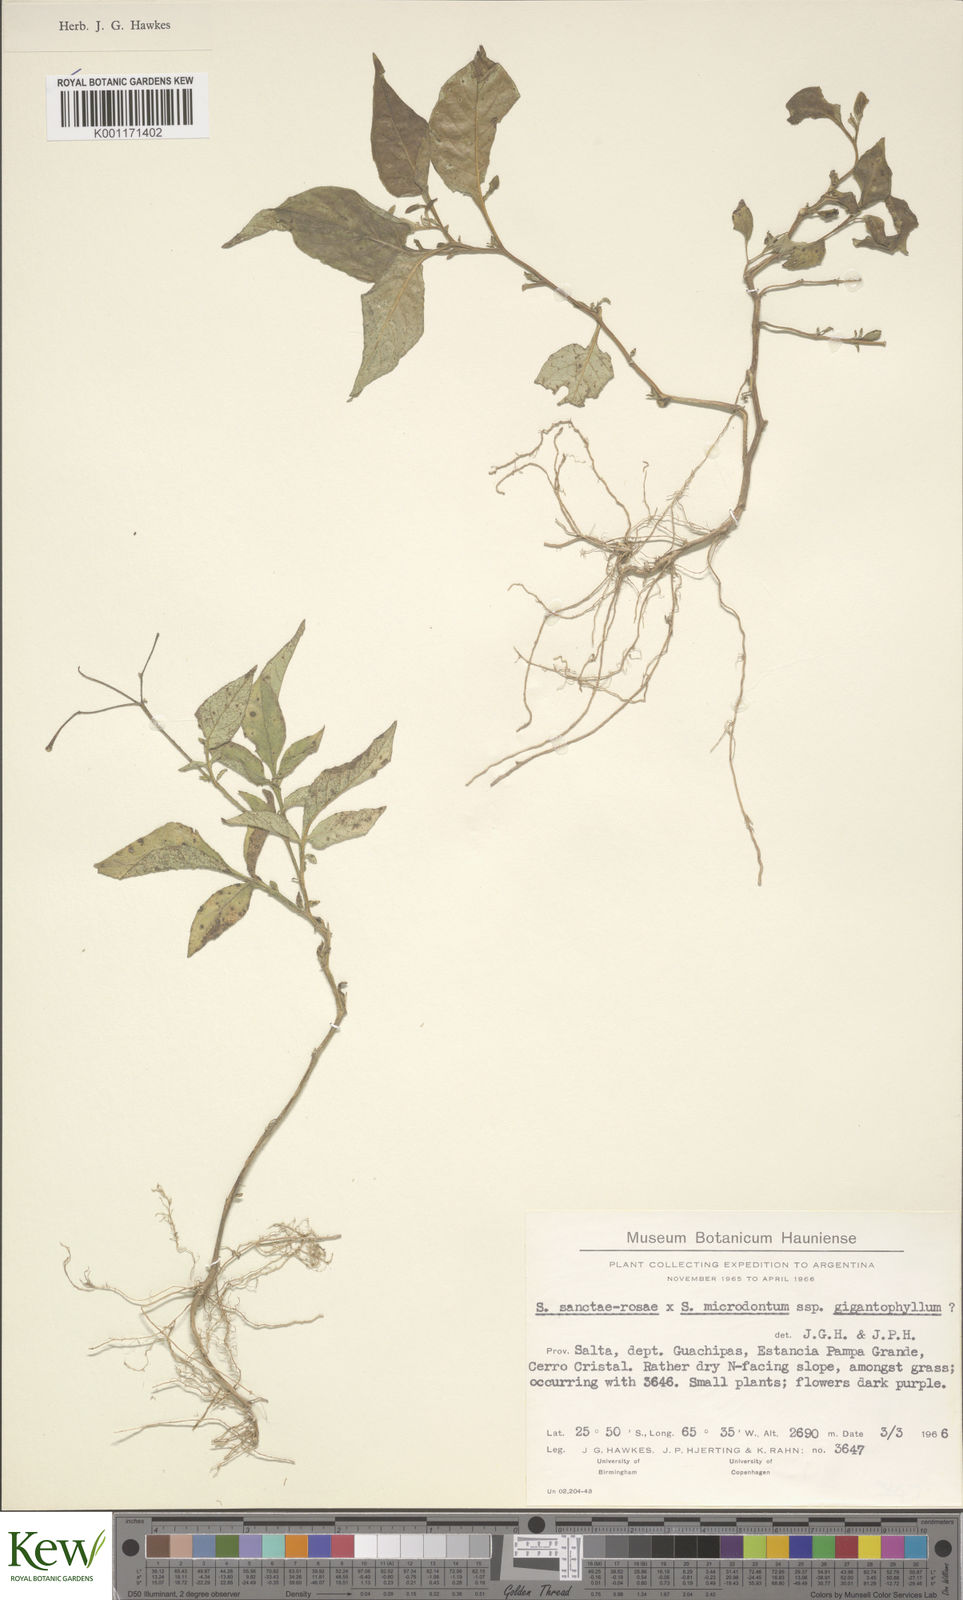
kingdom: Plantae
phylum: Tracheophyta
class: Magnoliopsida
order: Solanales
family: Solanaceae
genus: Solanum
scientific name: Solanum microdontum
